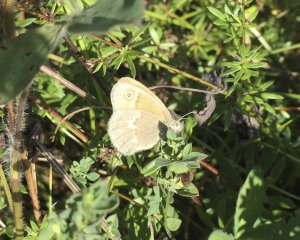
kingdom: Animalia
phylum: Arthropoda
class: Insecta
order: Lepidoptera
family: Nymphalidae
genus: Coenonympha
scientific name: Coenonympha tullia
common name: Large Heath
